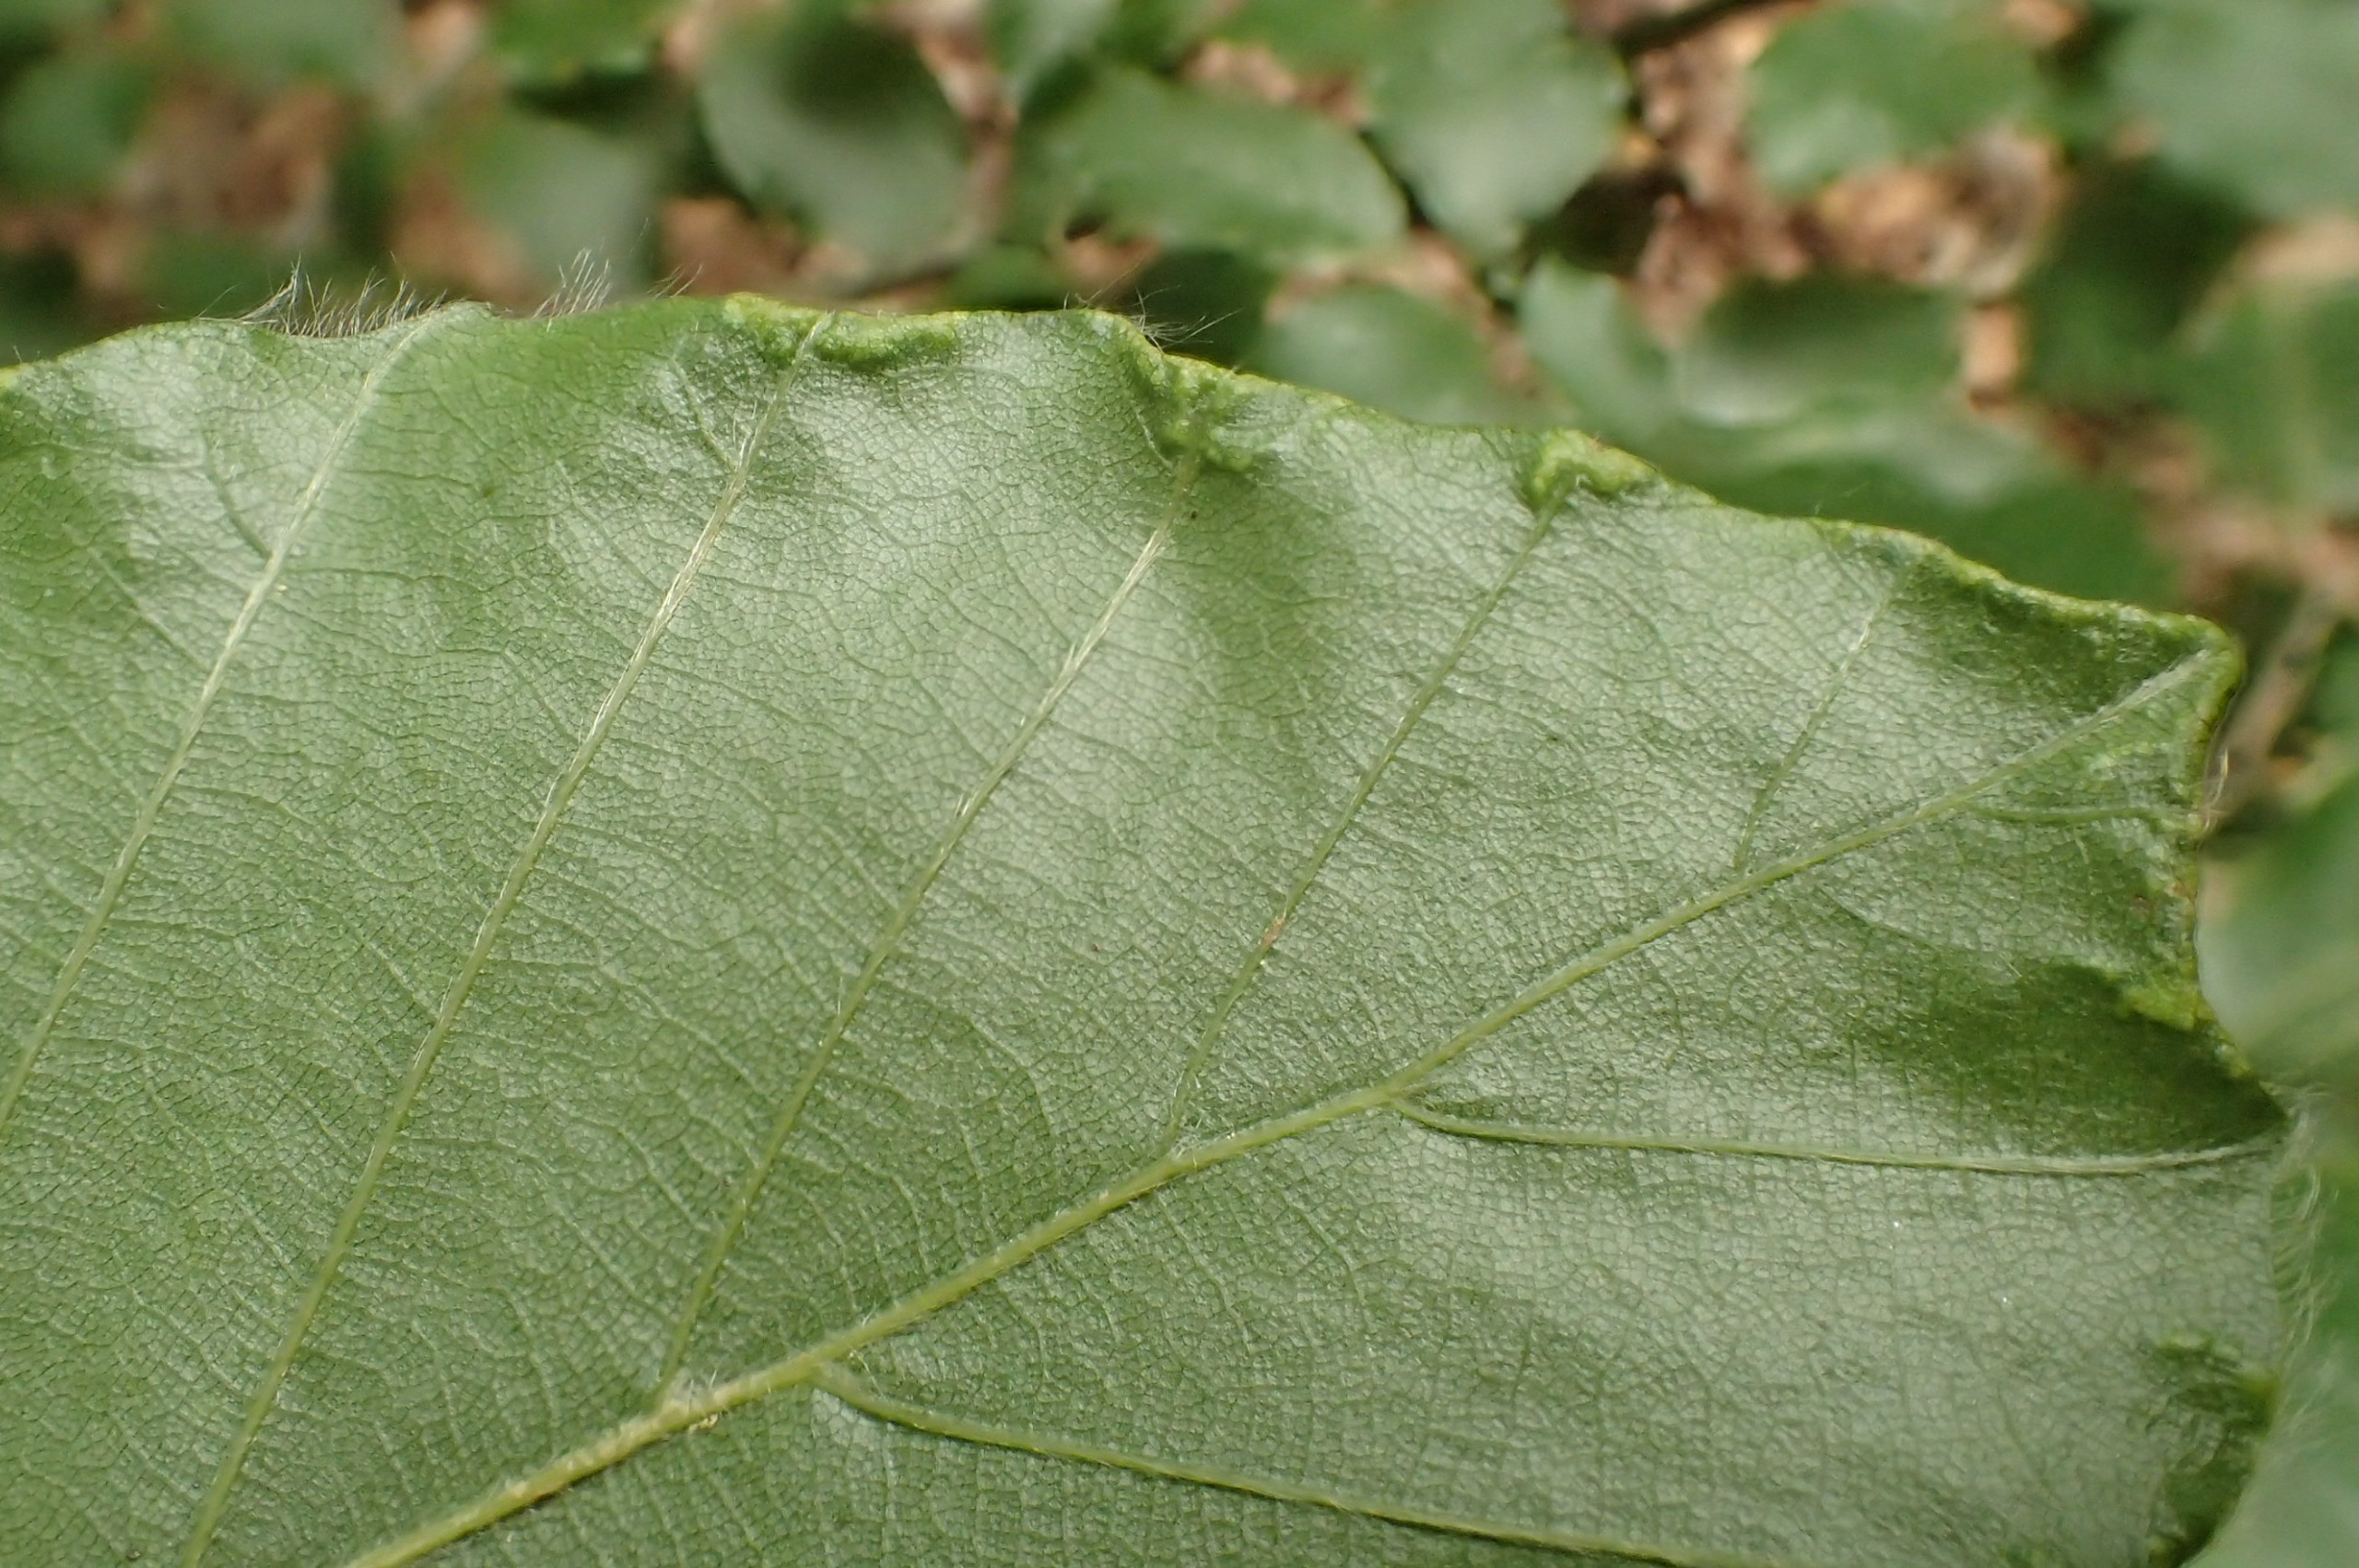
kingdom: Animalia
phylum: Arthropoda
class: Arachnida
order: Trombidiformes
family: Eriophyidae
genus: Acalitus
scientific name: Acalitus stenaspis
